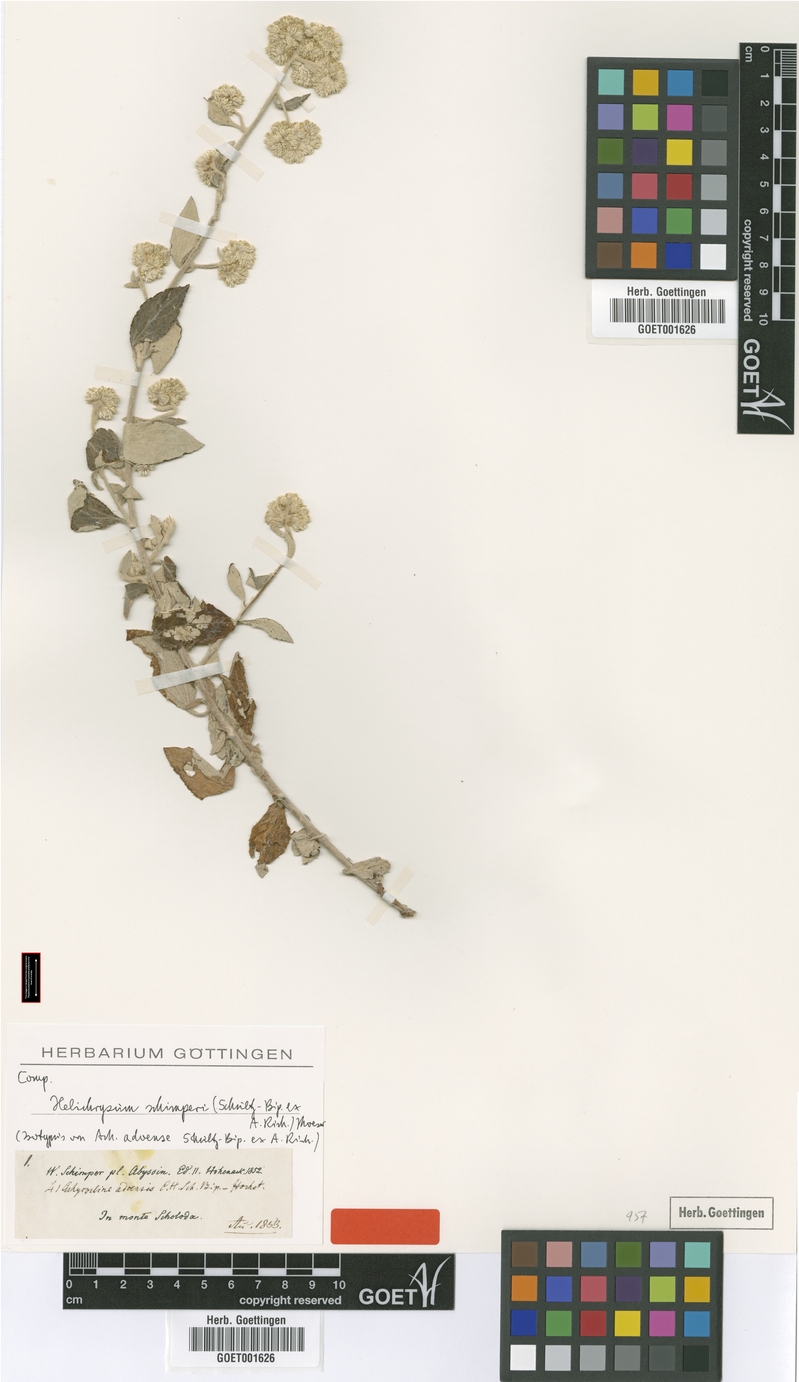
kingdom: Plantae
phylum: Tracheophyta
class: Magnoliopsida
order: Asterales
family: Asteraceae
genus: Helichrysum
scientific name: Helichrysum schimperi
